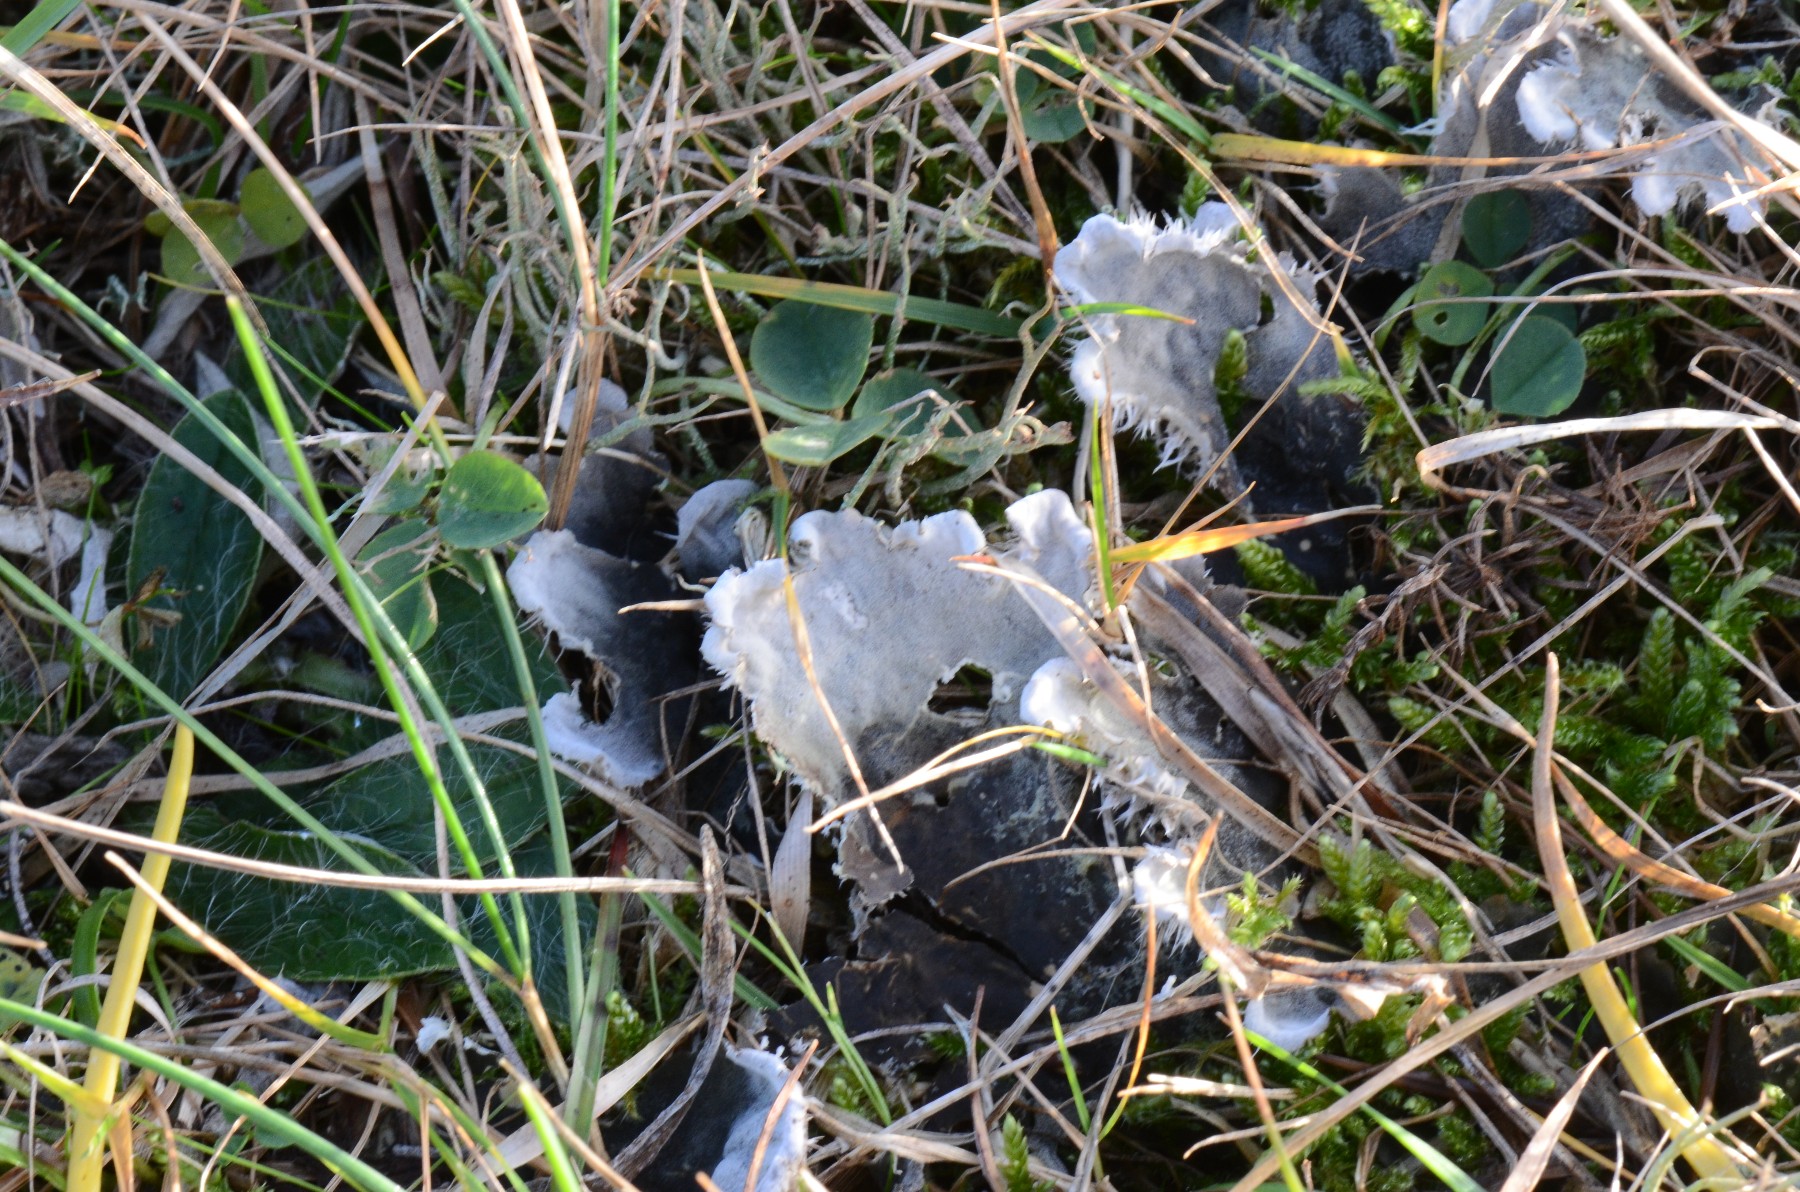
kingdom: Fungi
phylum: Ascomycota
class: Lecanoromycetes
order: Peltigerales
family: Peltigeraceae
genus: Peltigera
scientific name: Peltigera membranacea
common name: tynd skjoldlav
